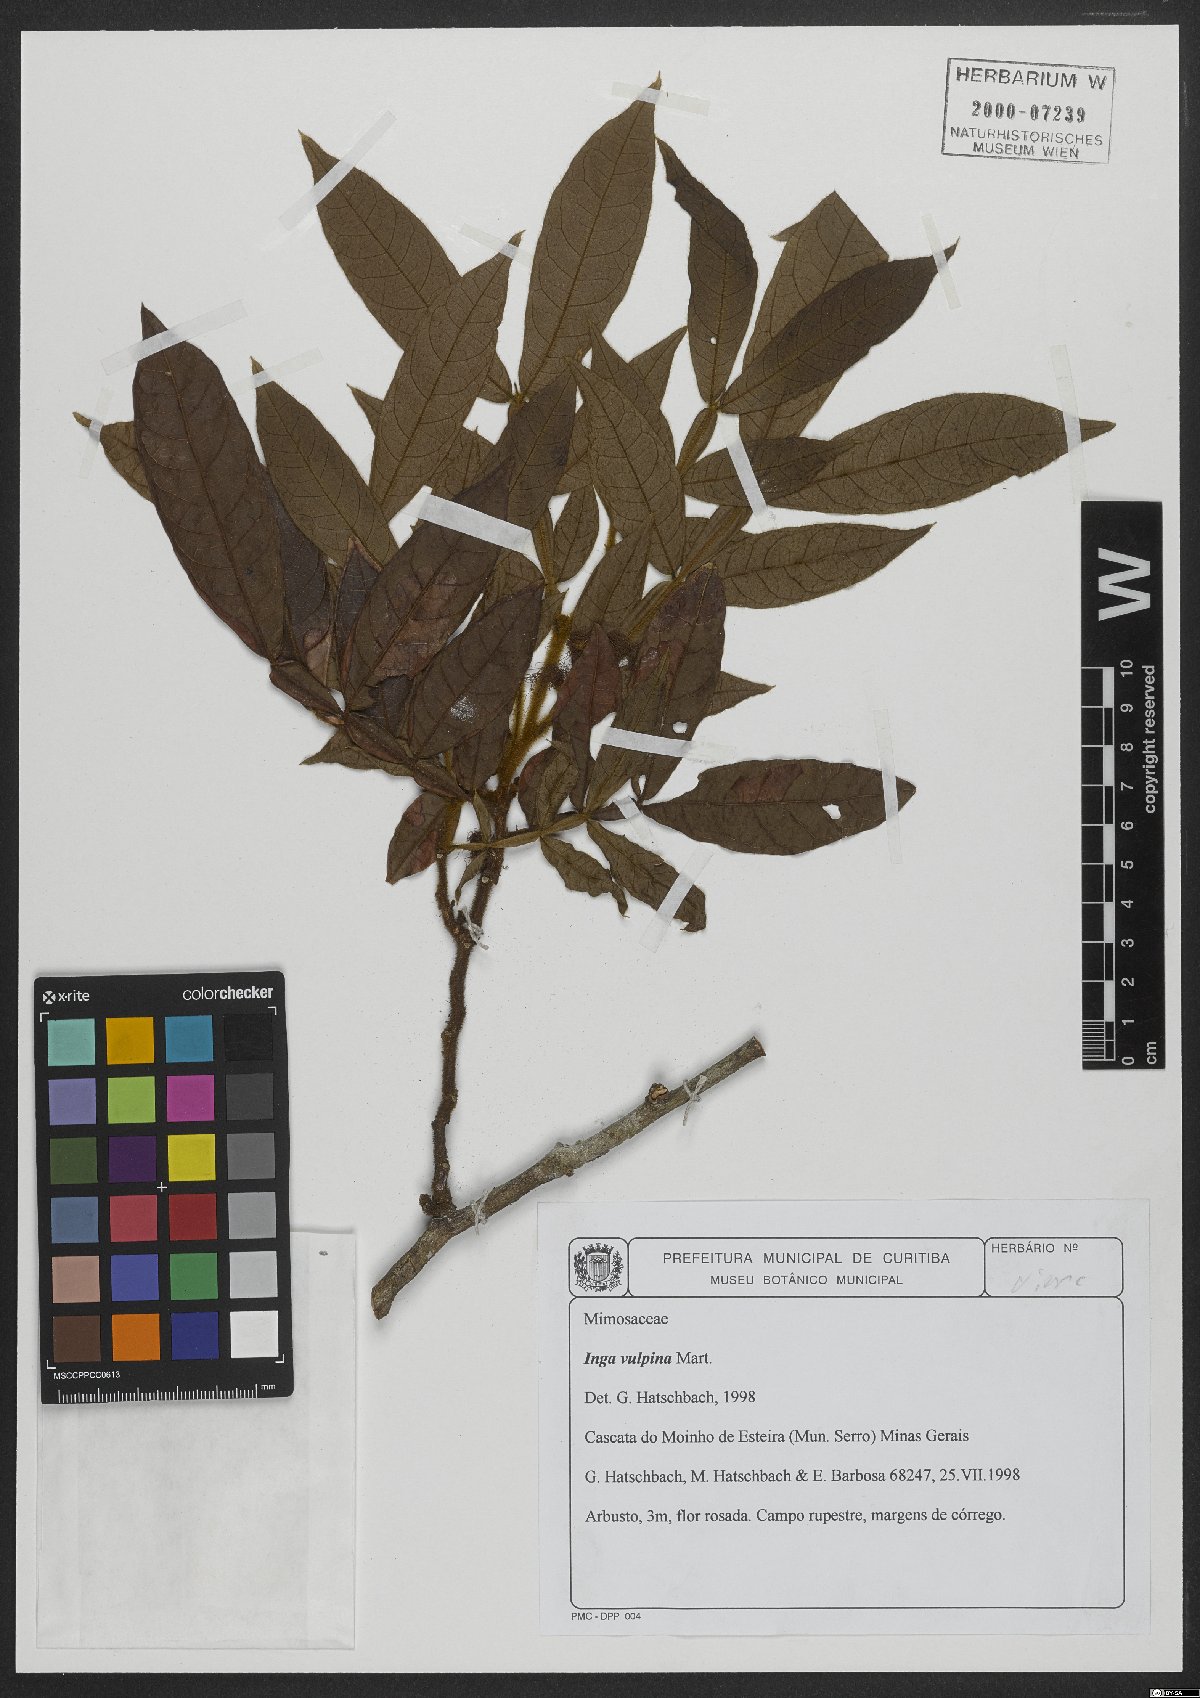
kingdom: Plantae
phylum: Tracheophyta
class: Magnoliopsida
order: Fabales
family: Fabaceae
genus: Inga
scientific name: Inga vulpina
